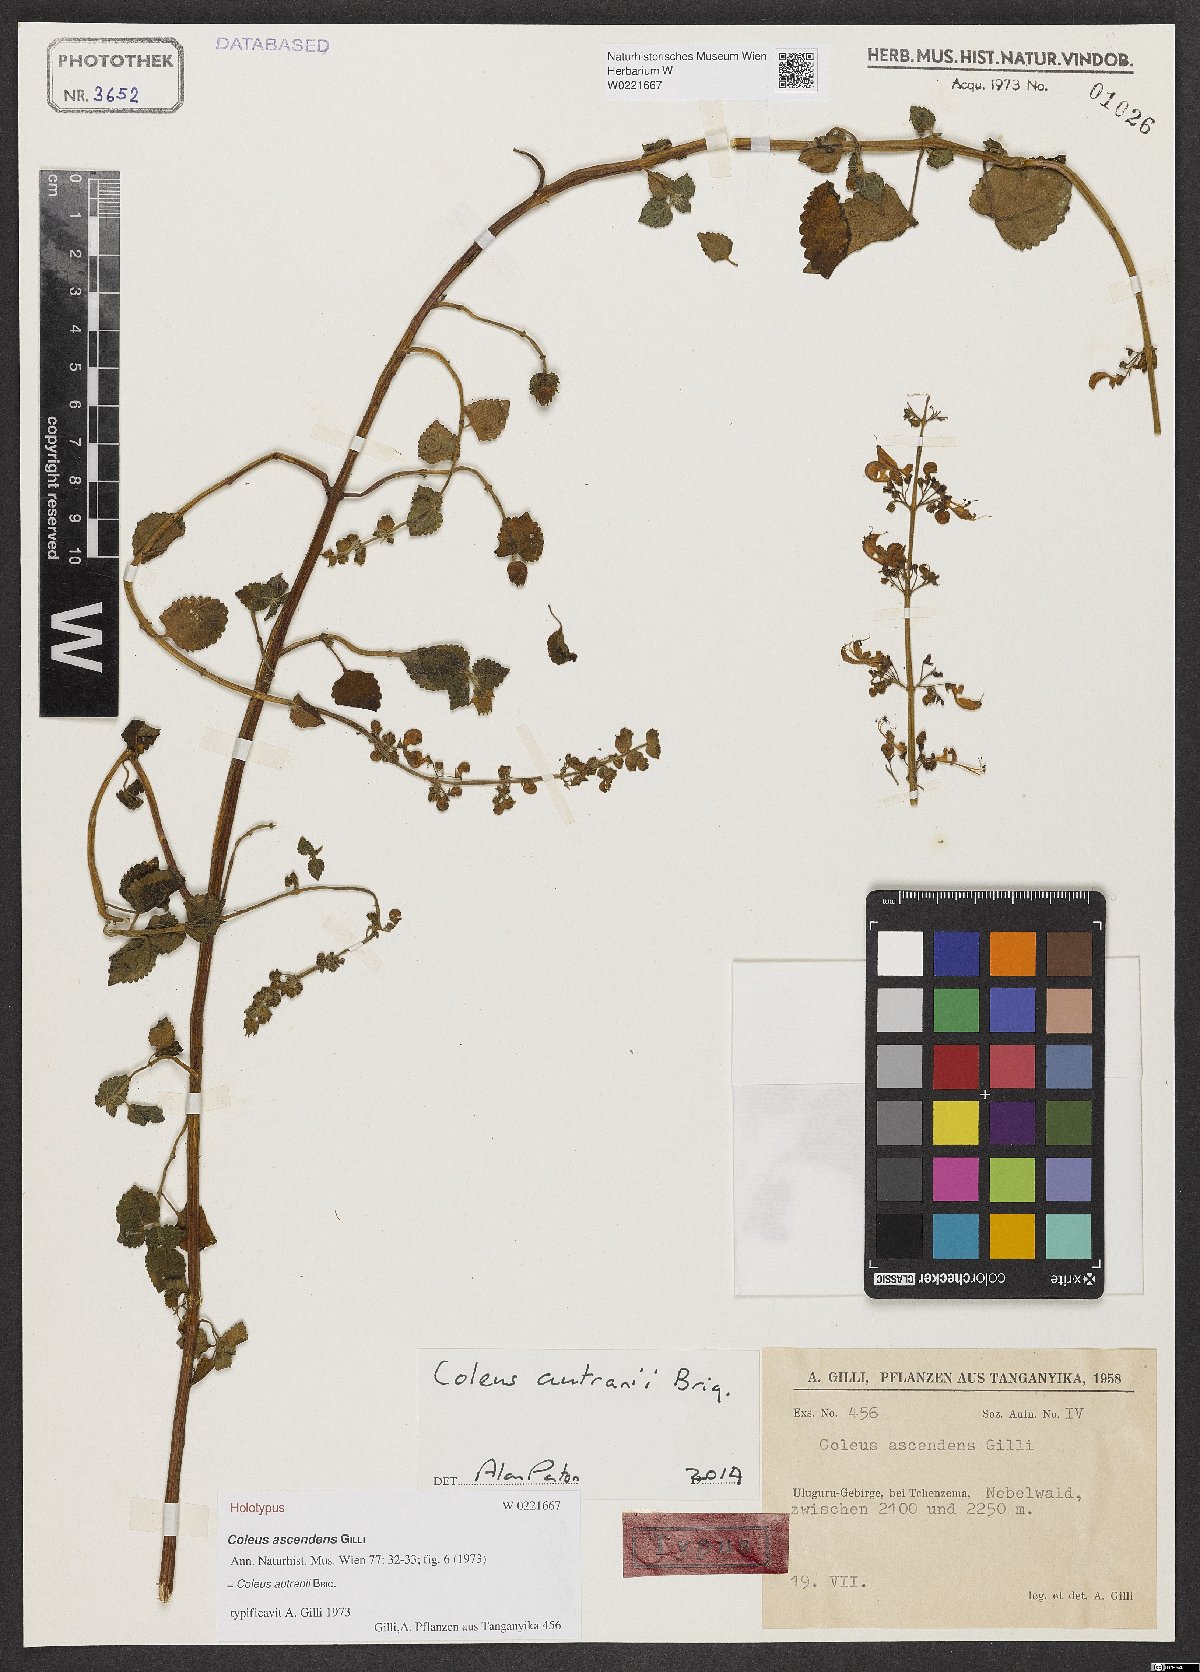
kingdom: Plantae
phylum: Tracheophyta
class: Magnoliopsida
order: Lamiales
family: Lamiaceae
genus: Coleus
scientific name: Coleus autranii
